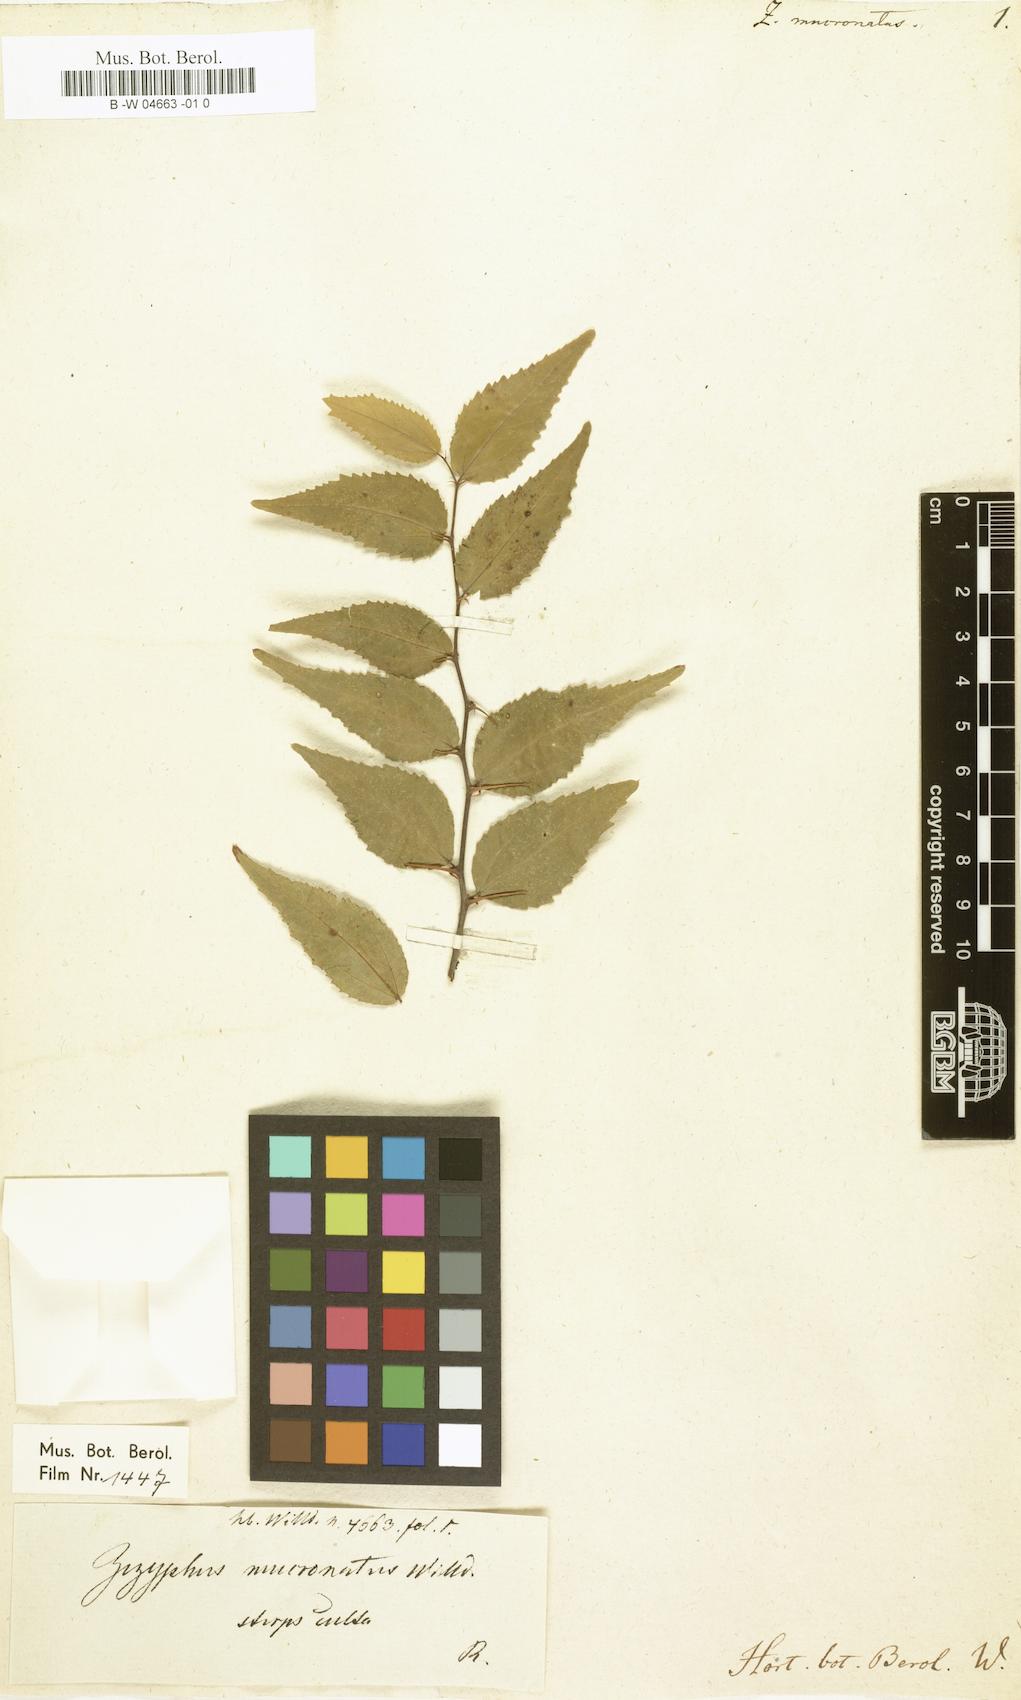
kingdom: Plantae
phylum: Tracheophyta
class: Magnoliopsida
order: Rosales
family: Rhamnaceae
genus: Ziziphus
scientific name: Ziziphus mucronata
